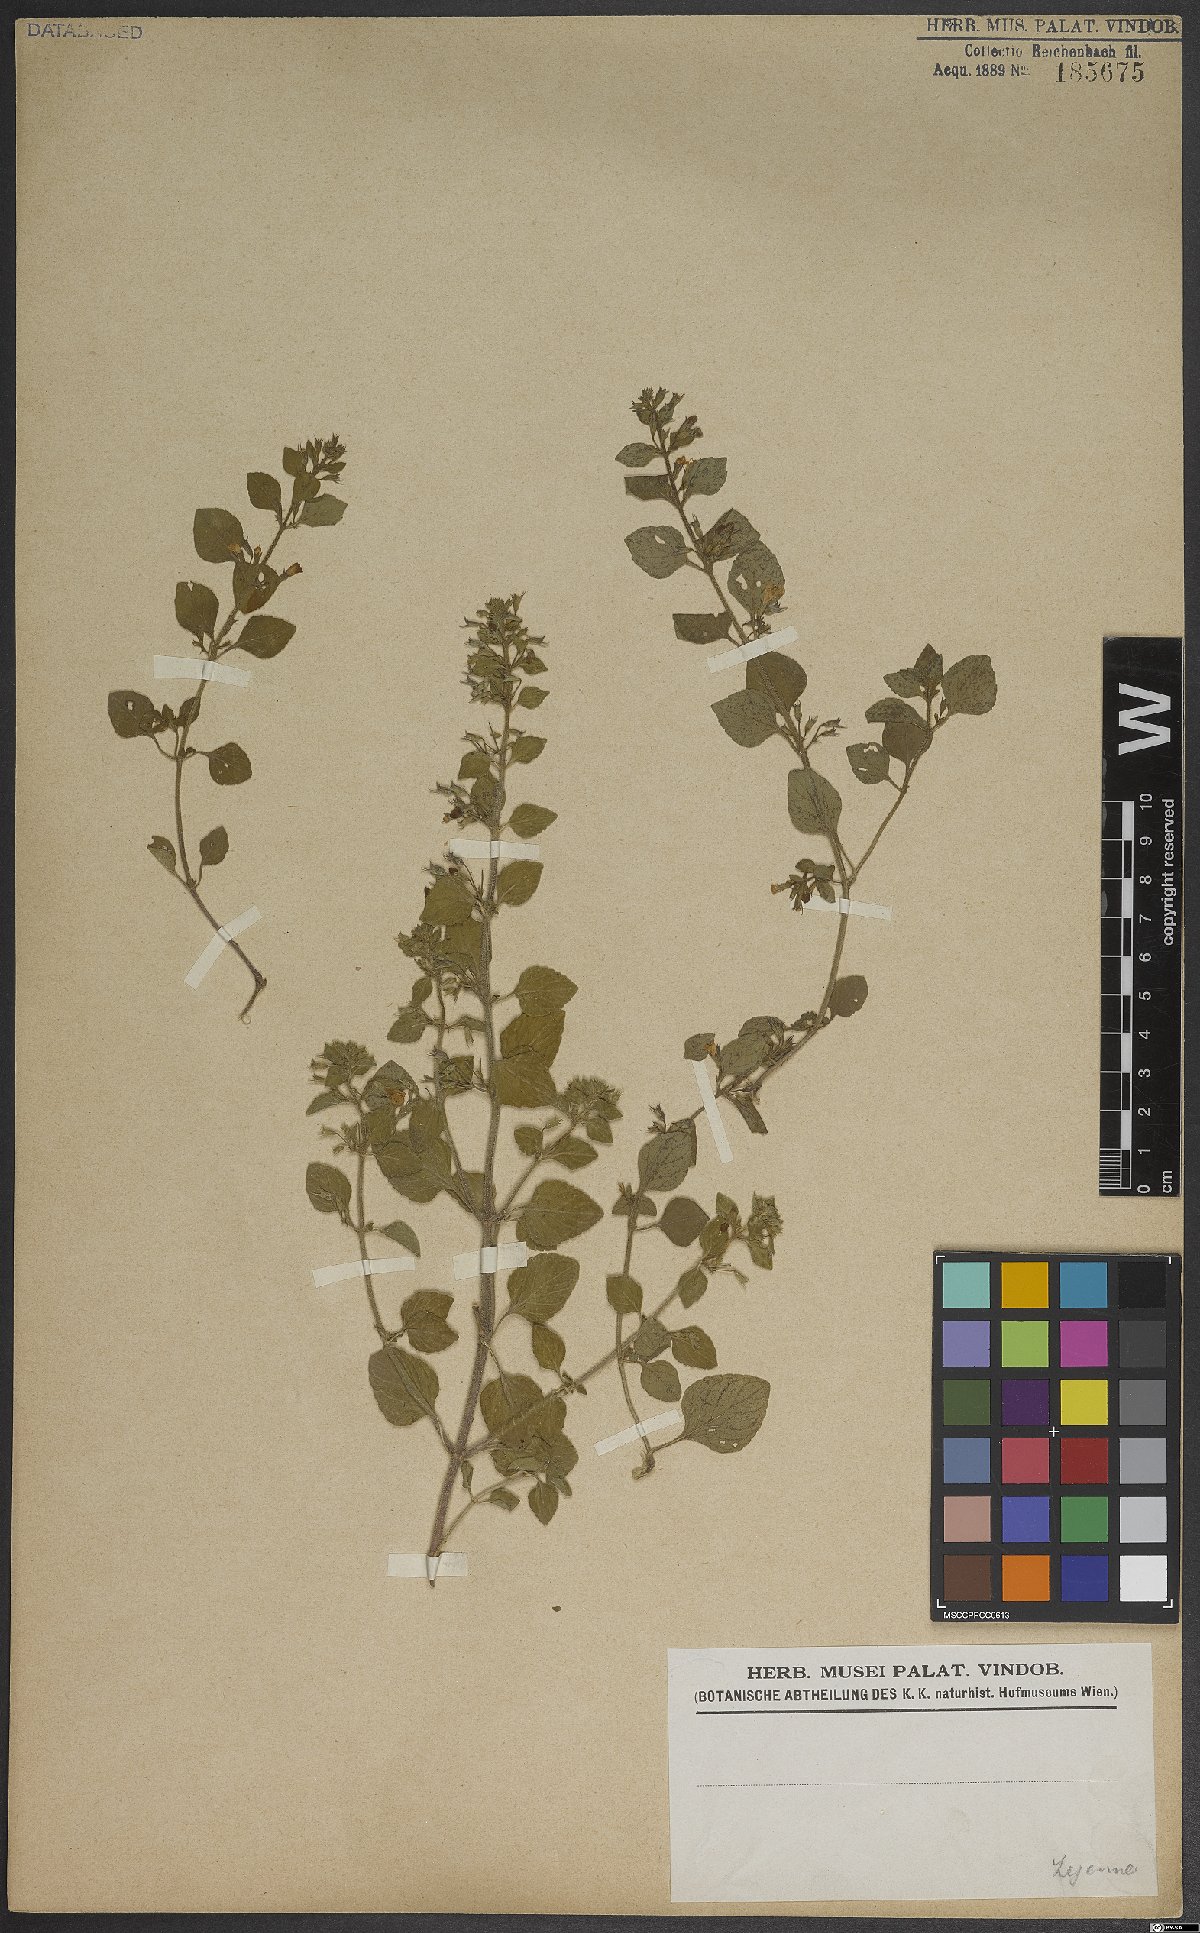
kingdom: Plantae
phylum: Tracheophyta
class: Magnoliopsida
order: Lamiales
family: Lamiaceae
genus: Clinopodium
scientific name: Clinopodium menthifolium
